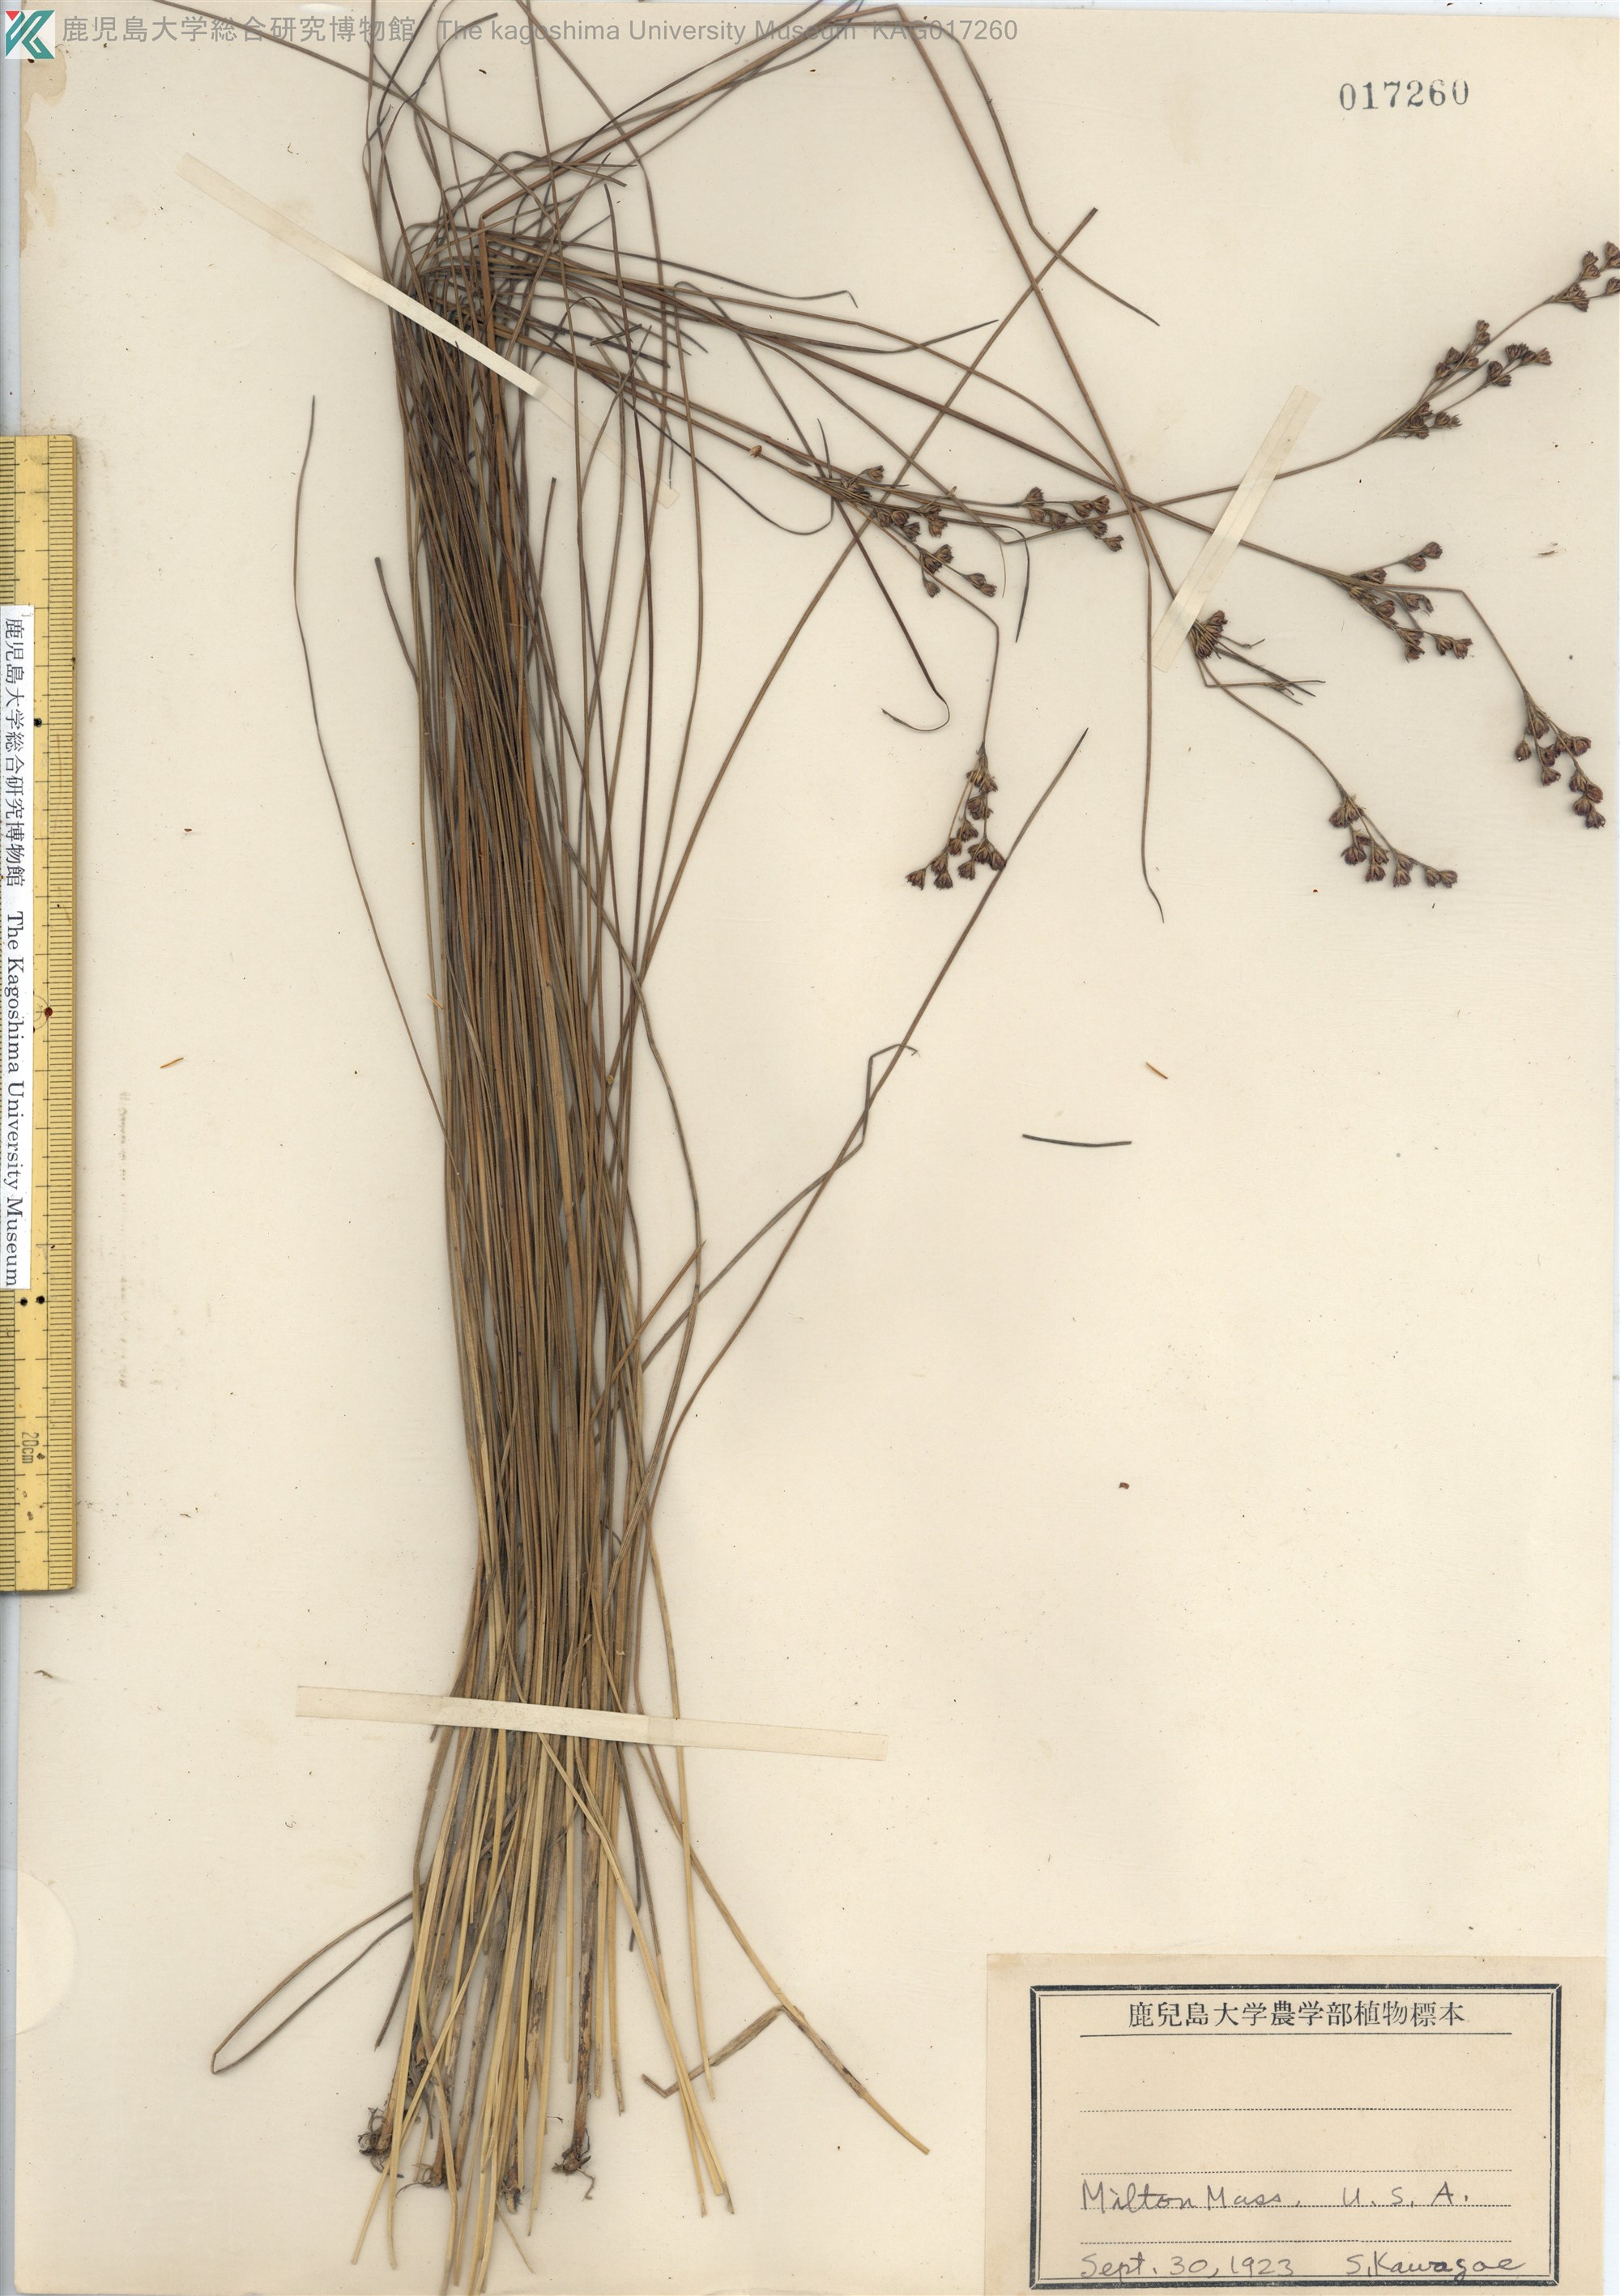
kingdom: Plantae
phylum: Tracheophyta
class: Liliopsida
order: Poales
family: Juncaceae
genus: Juncus
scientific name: Juncus
